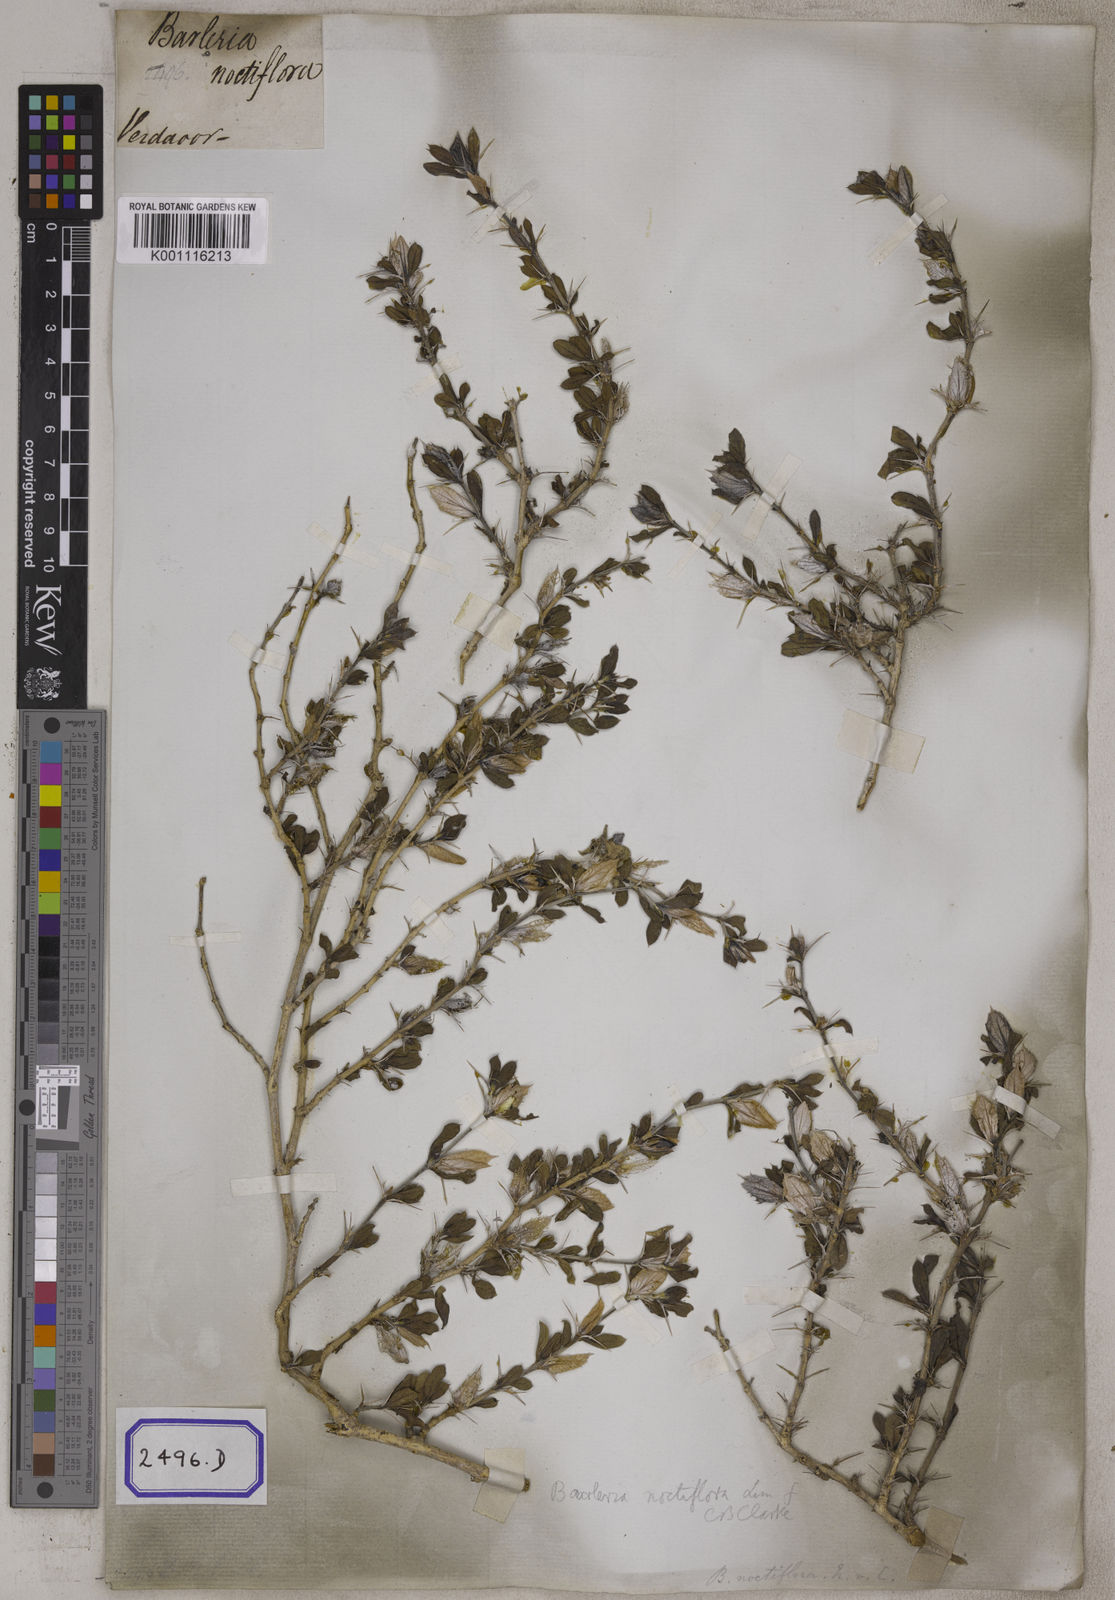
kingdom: Plantae
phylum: Tracheophyta
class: Magnoliopsida
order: Lamiales
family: Acanthaceae
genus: Barleria
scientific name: Barleria noctiflora
